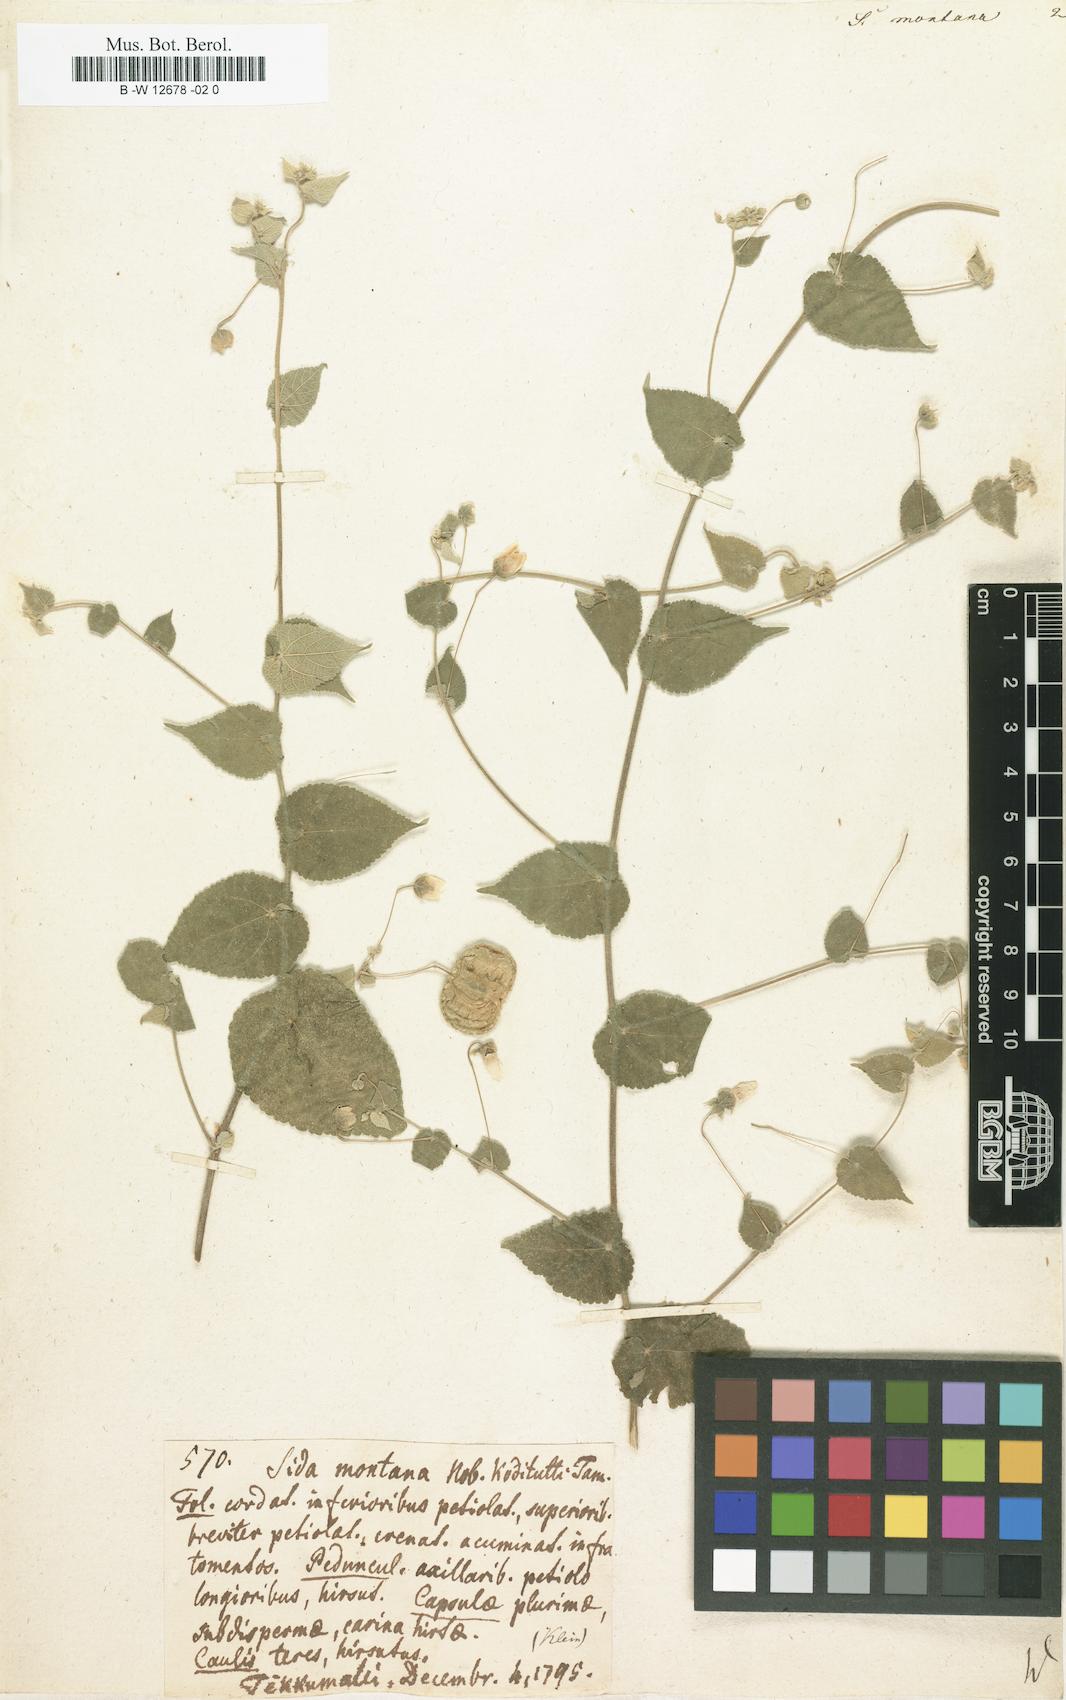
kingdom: Plantae
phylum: Tracheophyta
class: Magnoliopsida
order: Malvales
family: Malvaceae
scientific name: Malvaceae
